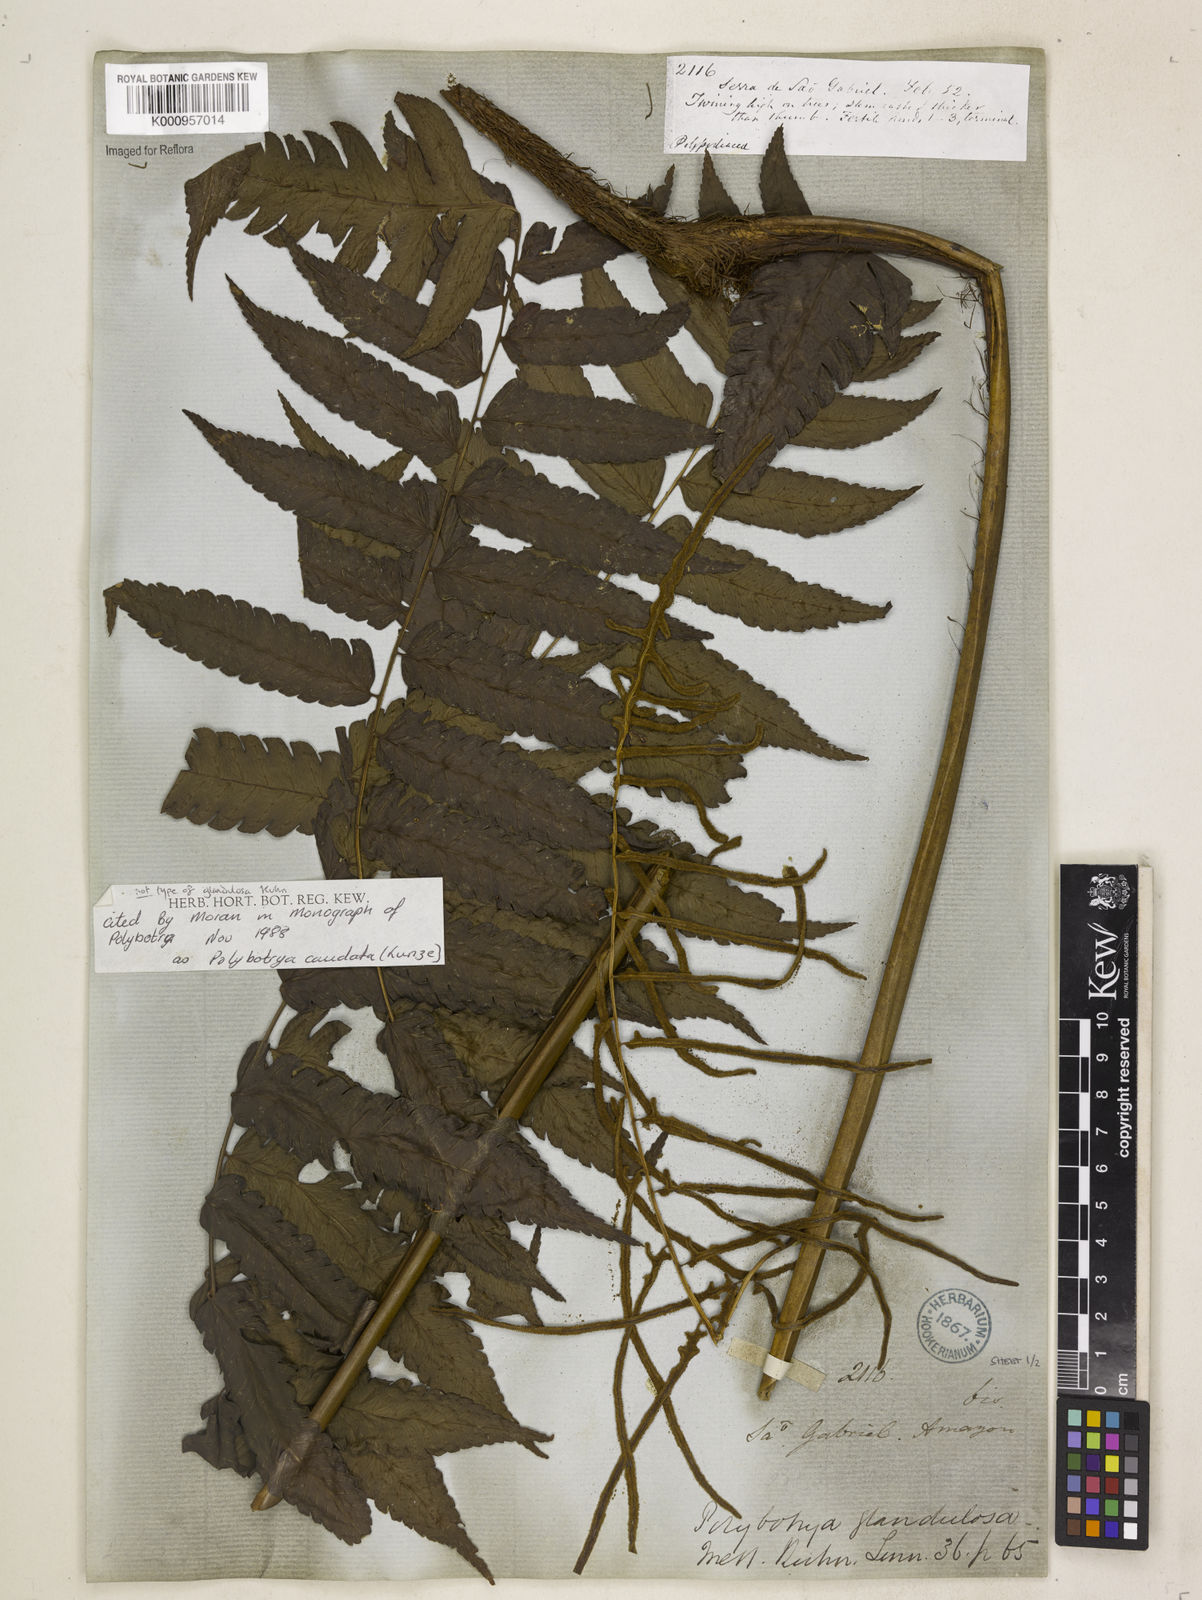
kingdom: Plantae
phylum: Tracheophyta
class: Polypodiopsida
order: Polypodiales
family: Dryopteridaceae
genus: Polybotrya
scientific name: Polybotrya caudata
